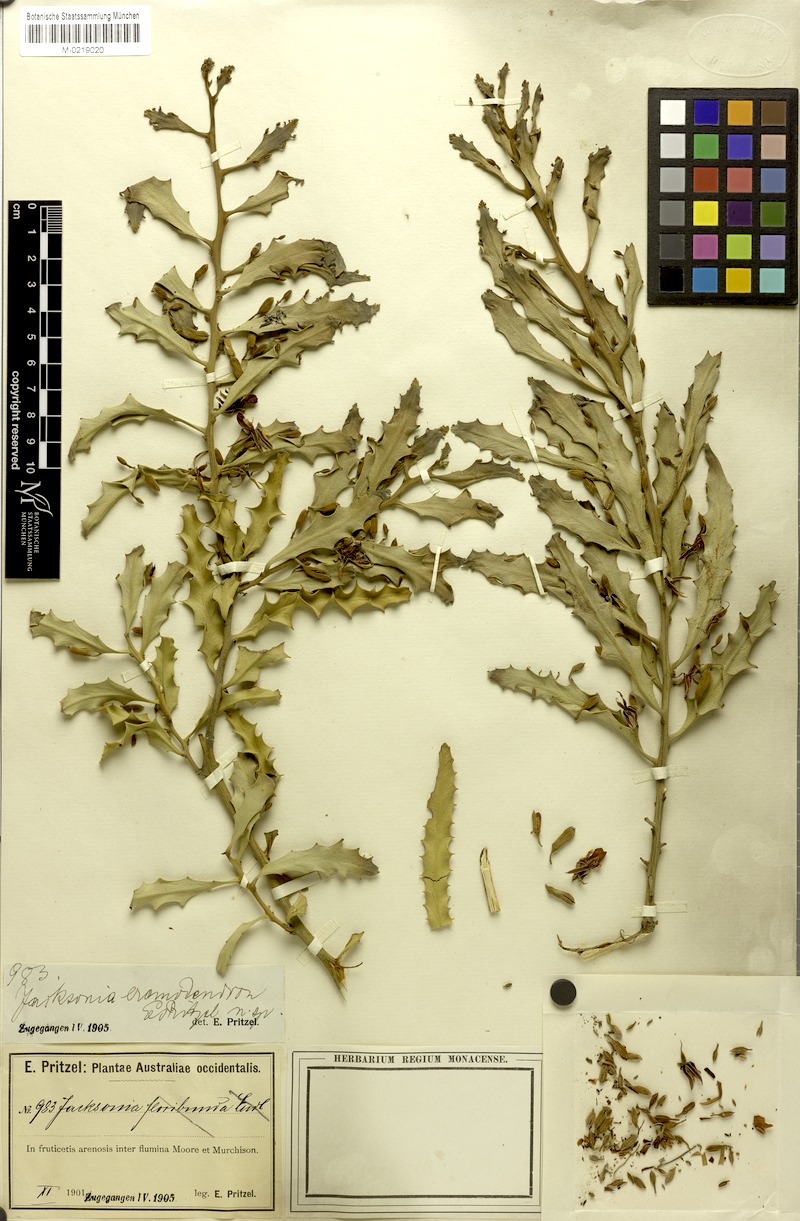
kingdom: Plantae
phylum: Tracheophyta
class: Magnoliopsida
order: Fabales
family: Fabaceae
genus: Jacksonia
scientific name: Jacksonia eremodendron
